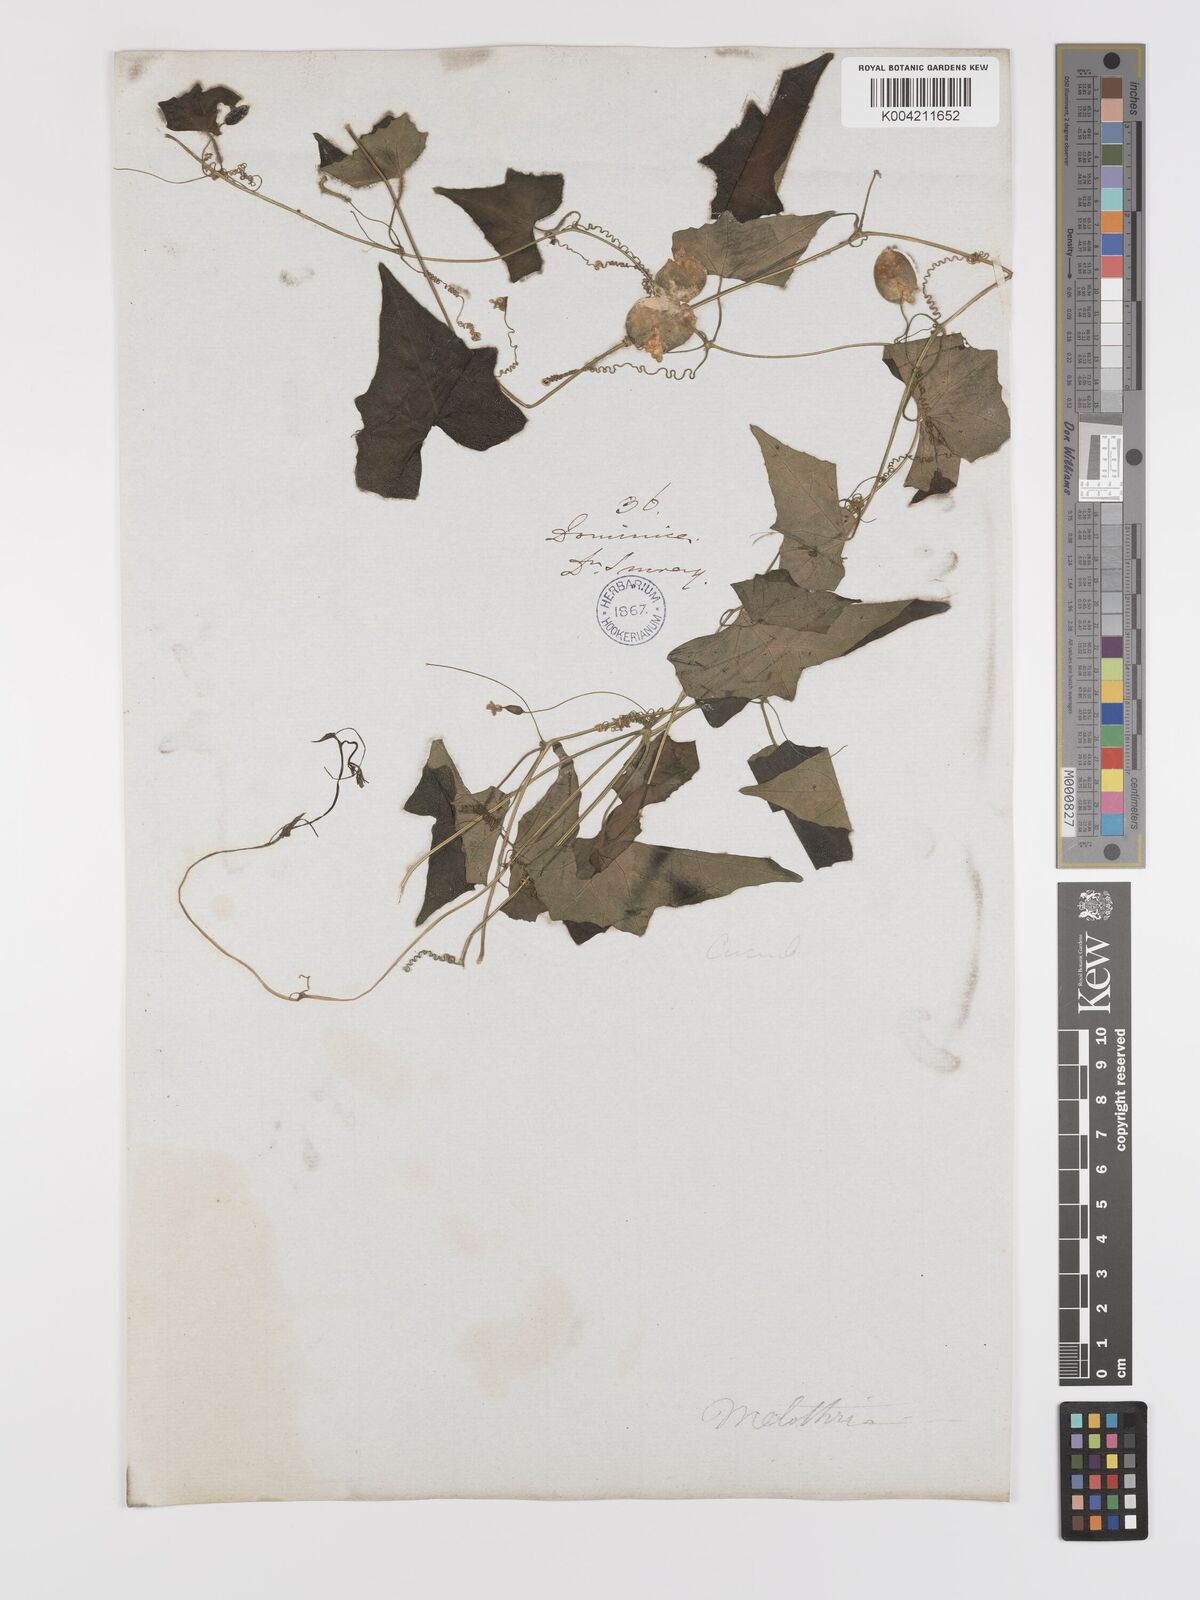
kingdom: Plantae
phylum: Tracheophyta
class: Magnoliopsida
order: Cucurbitales
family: Cucurbitaceae
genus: Melothria
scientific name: Melothria
